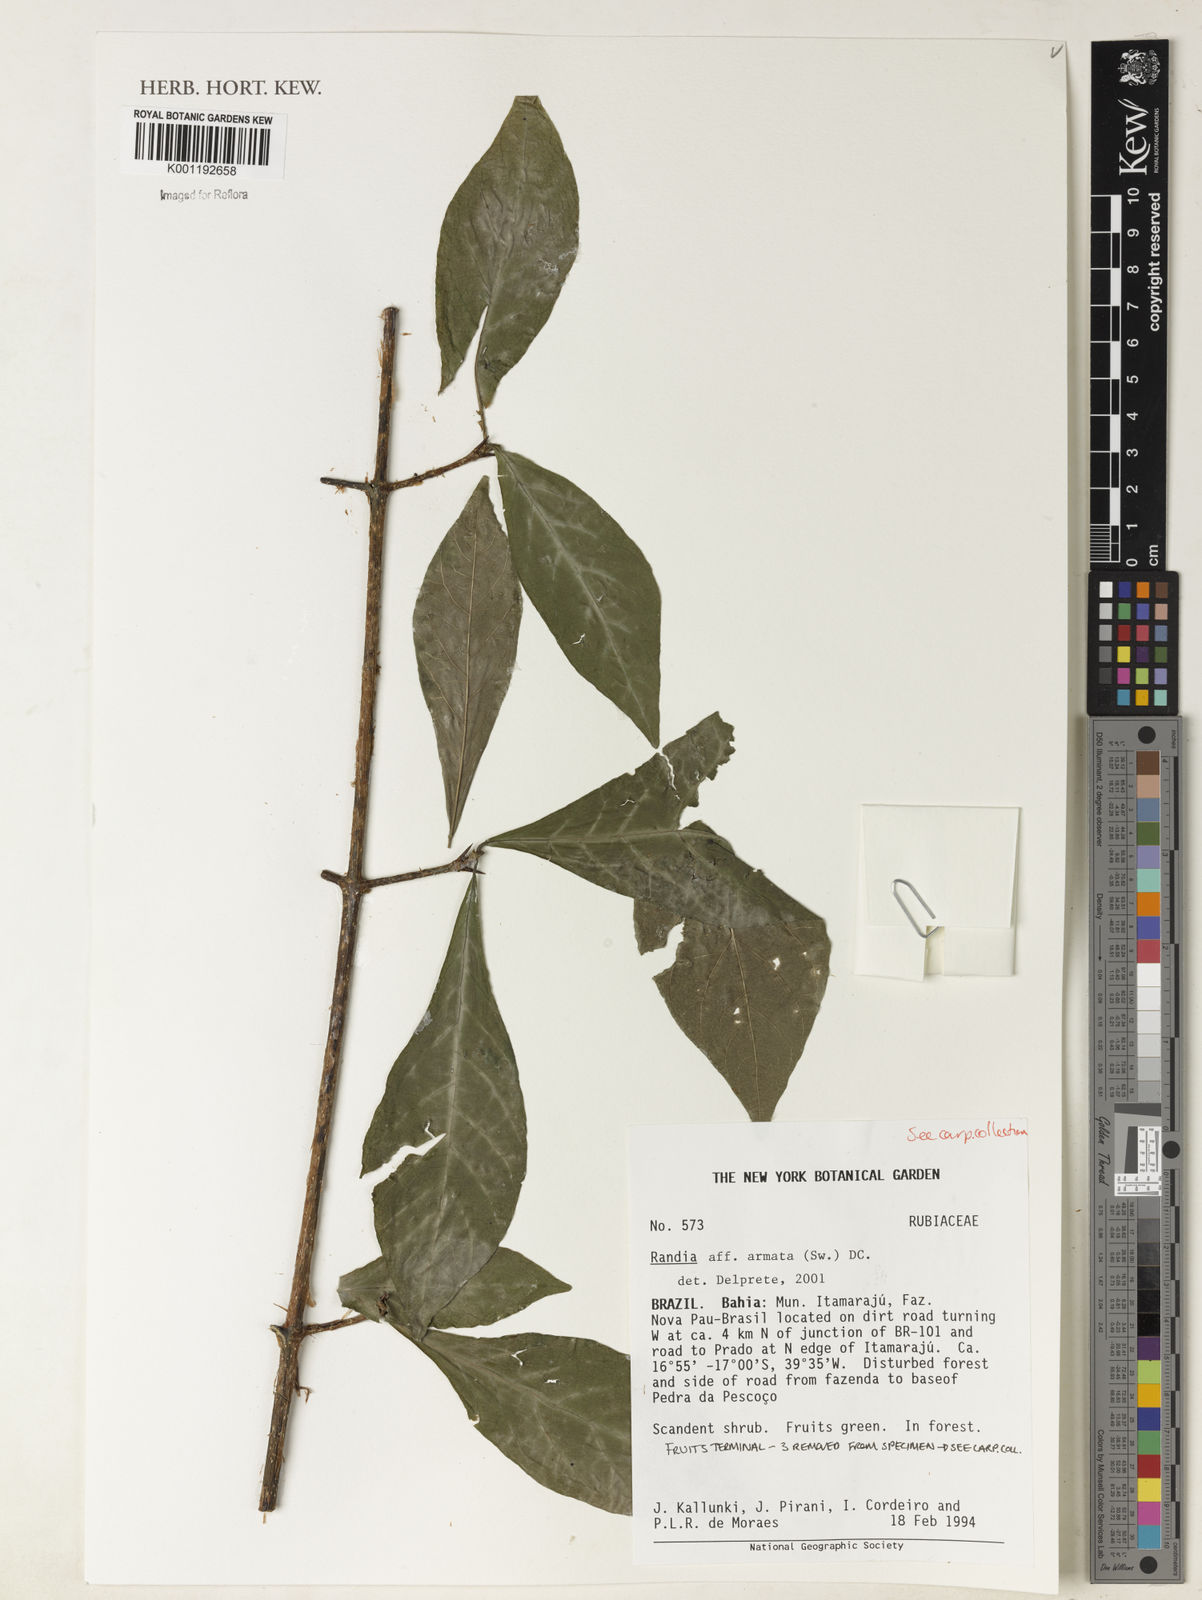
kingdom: Plantae
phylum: Tracheophyta
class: Magnoliopsida
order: Gentianales
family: Rubiaceae
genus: Randia
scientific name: Randia armata
